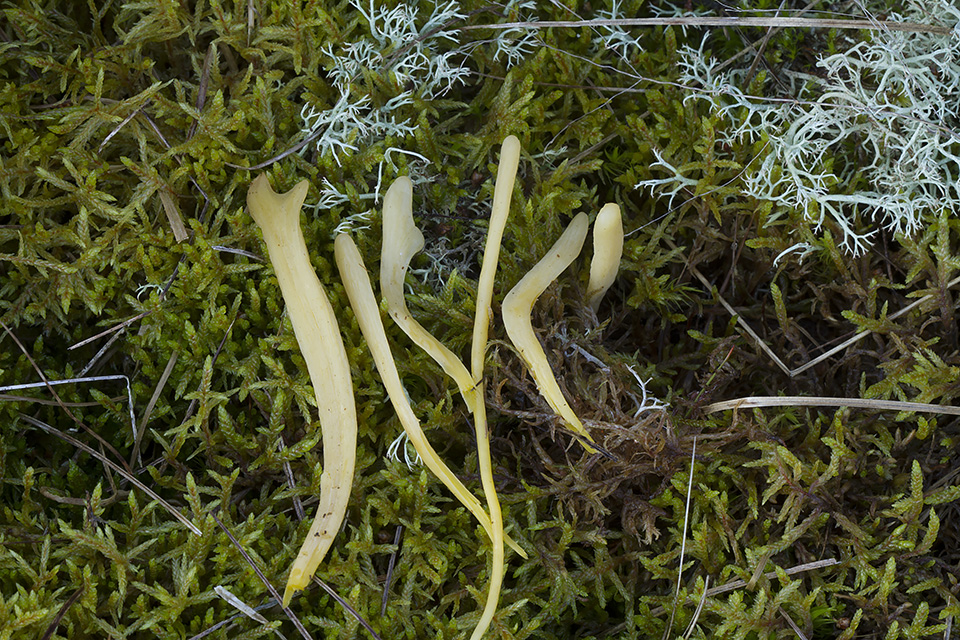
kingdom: Fungi
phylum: Basidiomycota
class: Agaricomycetes
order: Agaricales
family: Clavariaceae
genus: Clavaria
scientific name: Clavaria argillacea
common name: lerfarvet køllesvamp
